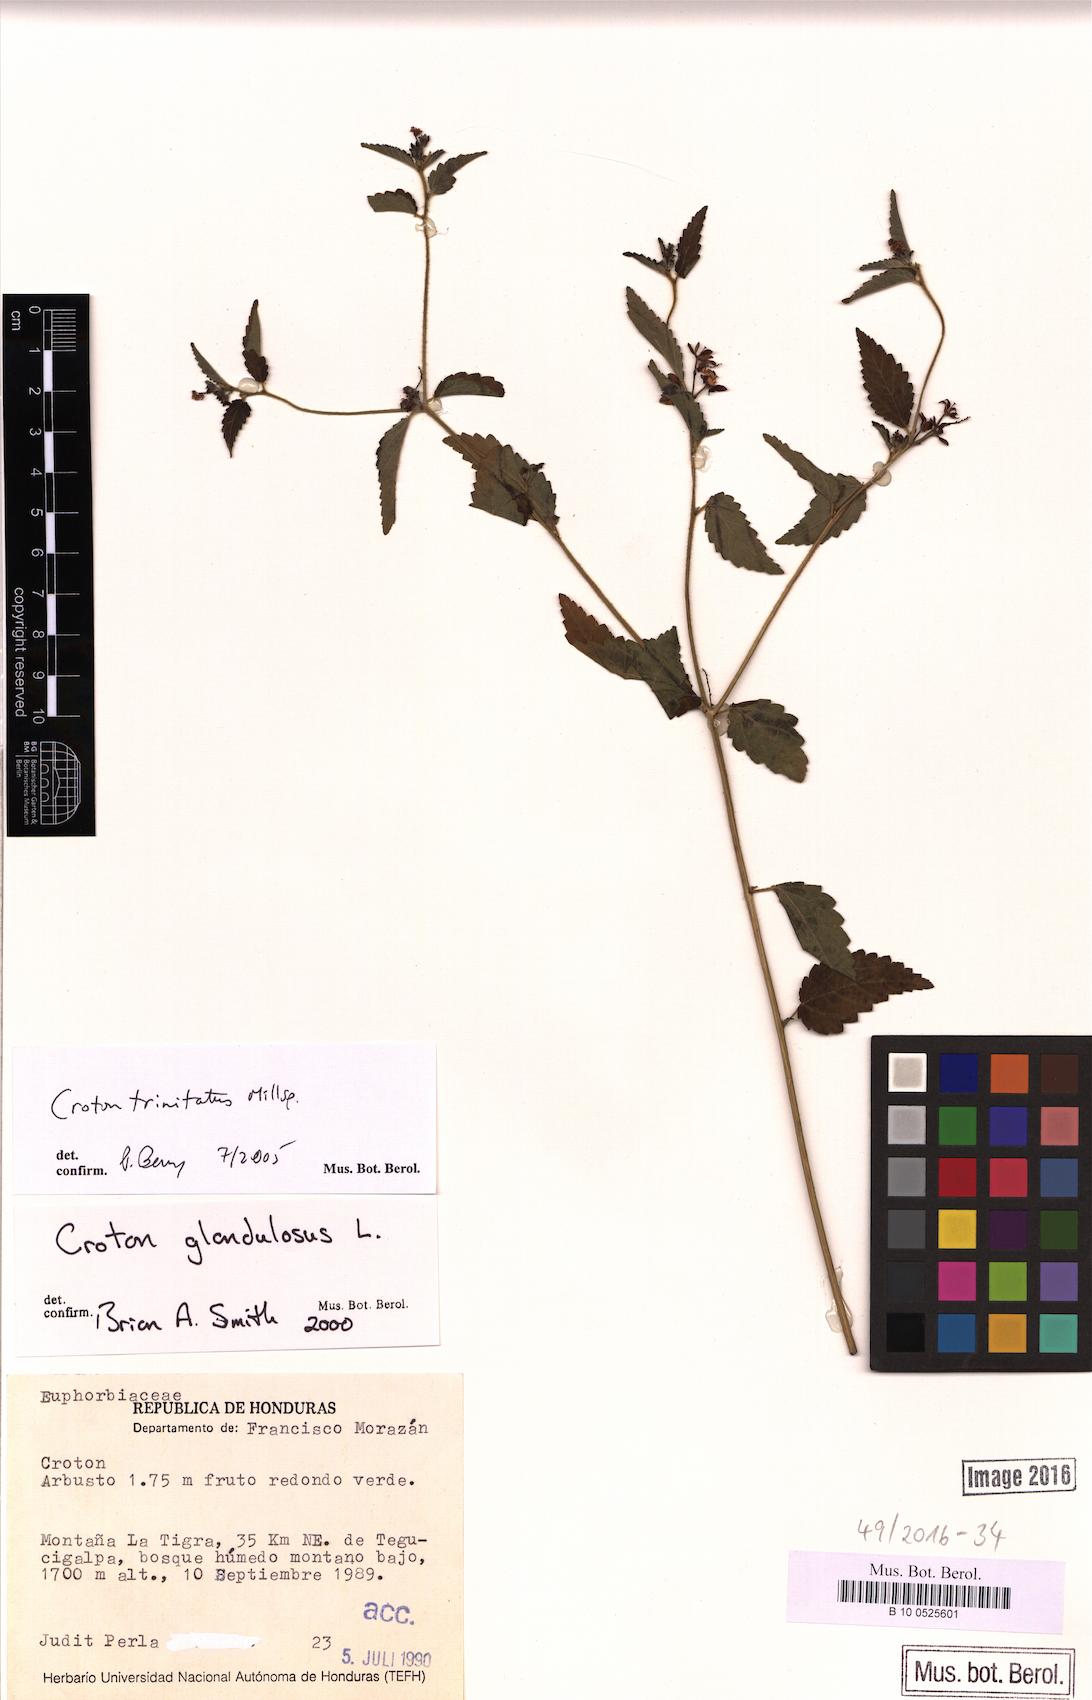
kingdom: Plantae
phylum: Tracheophyta
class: Magnoliopsida
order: Malpighiales
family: Euphorbiaceae
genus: Croton
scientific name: Croton trinitatis
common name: Roadside croton
